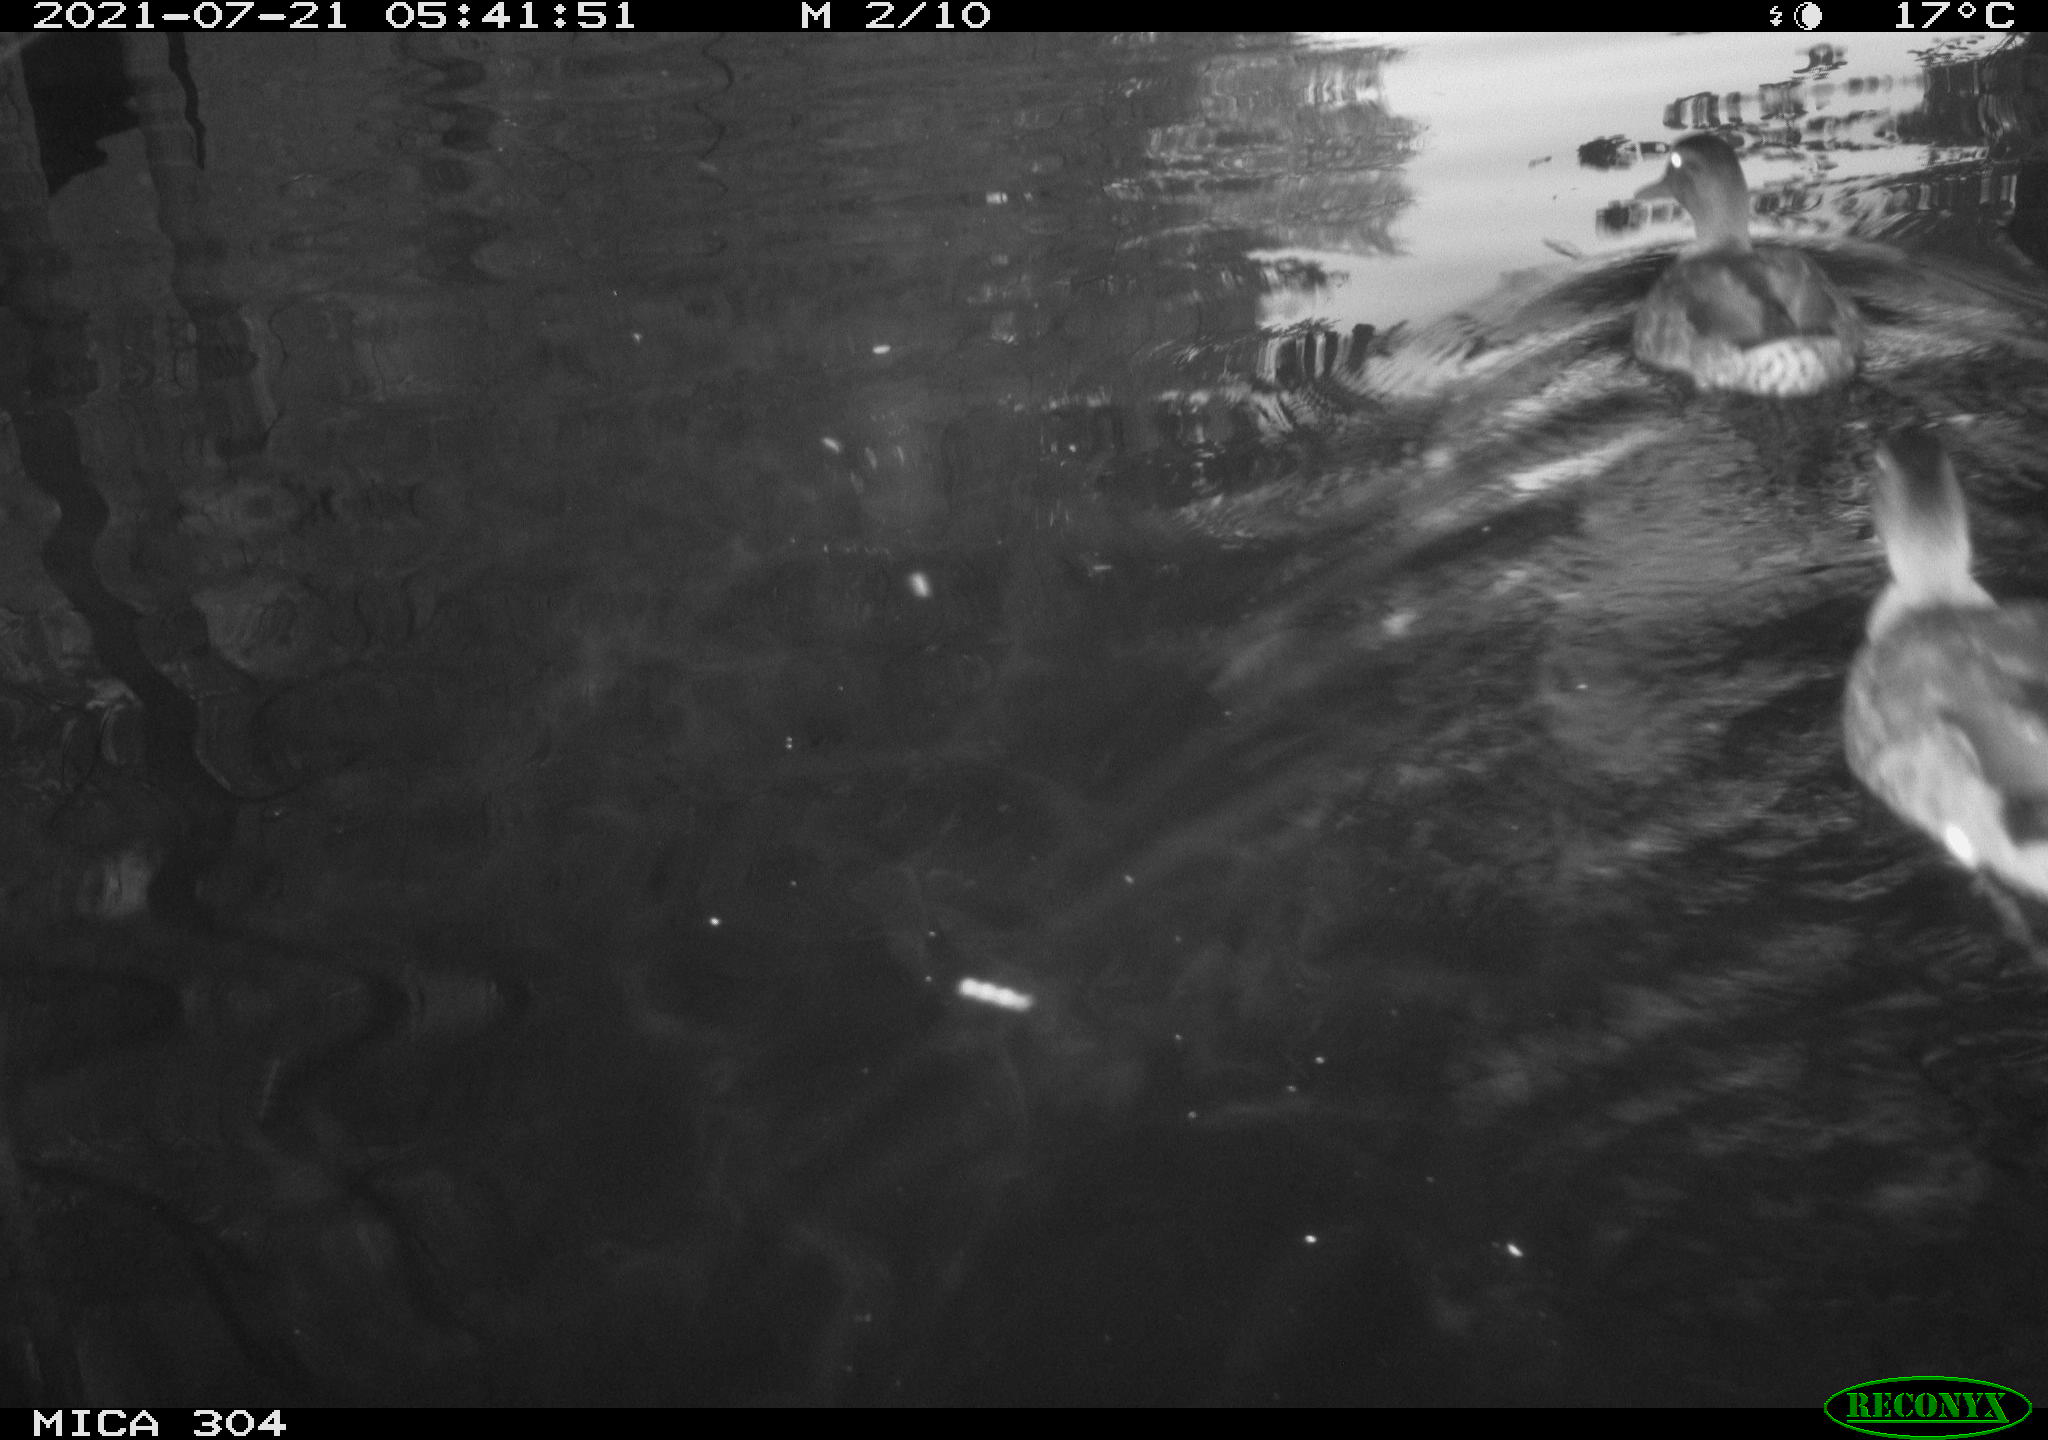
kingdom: Animalia
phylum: Chordata
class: Aves
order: Anseriformes
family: Anatidae
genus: Mareca
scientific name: Mareca strepera
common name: Gadwall
